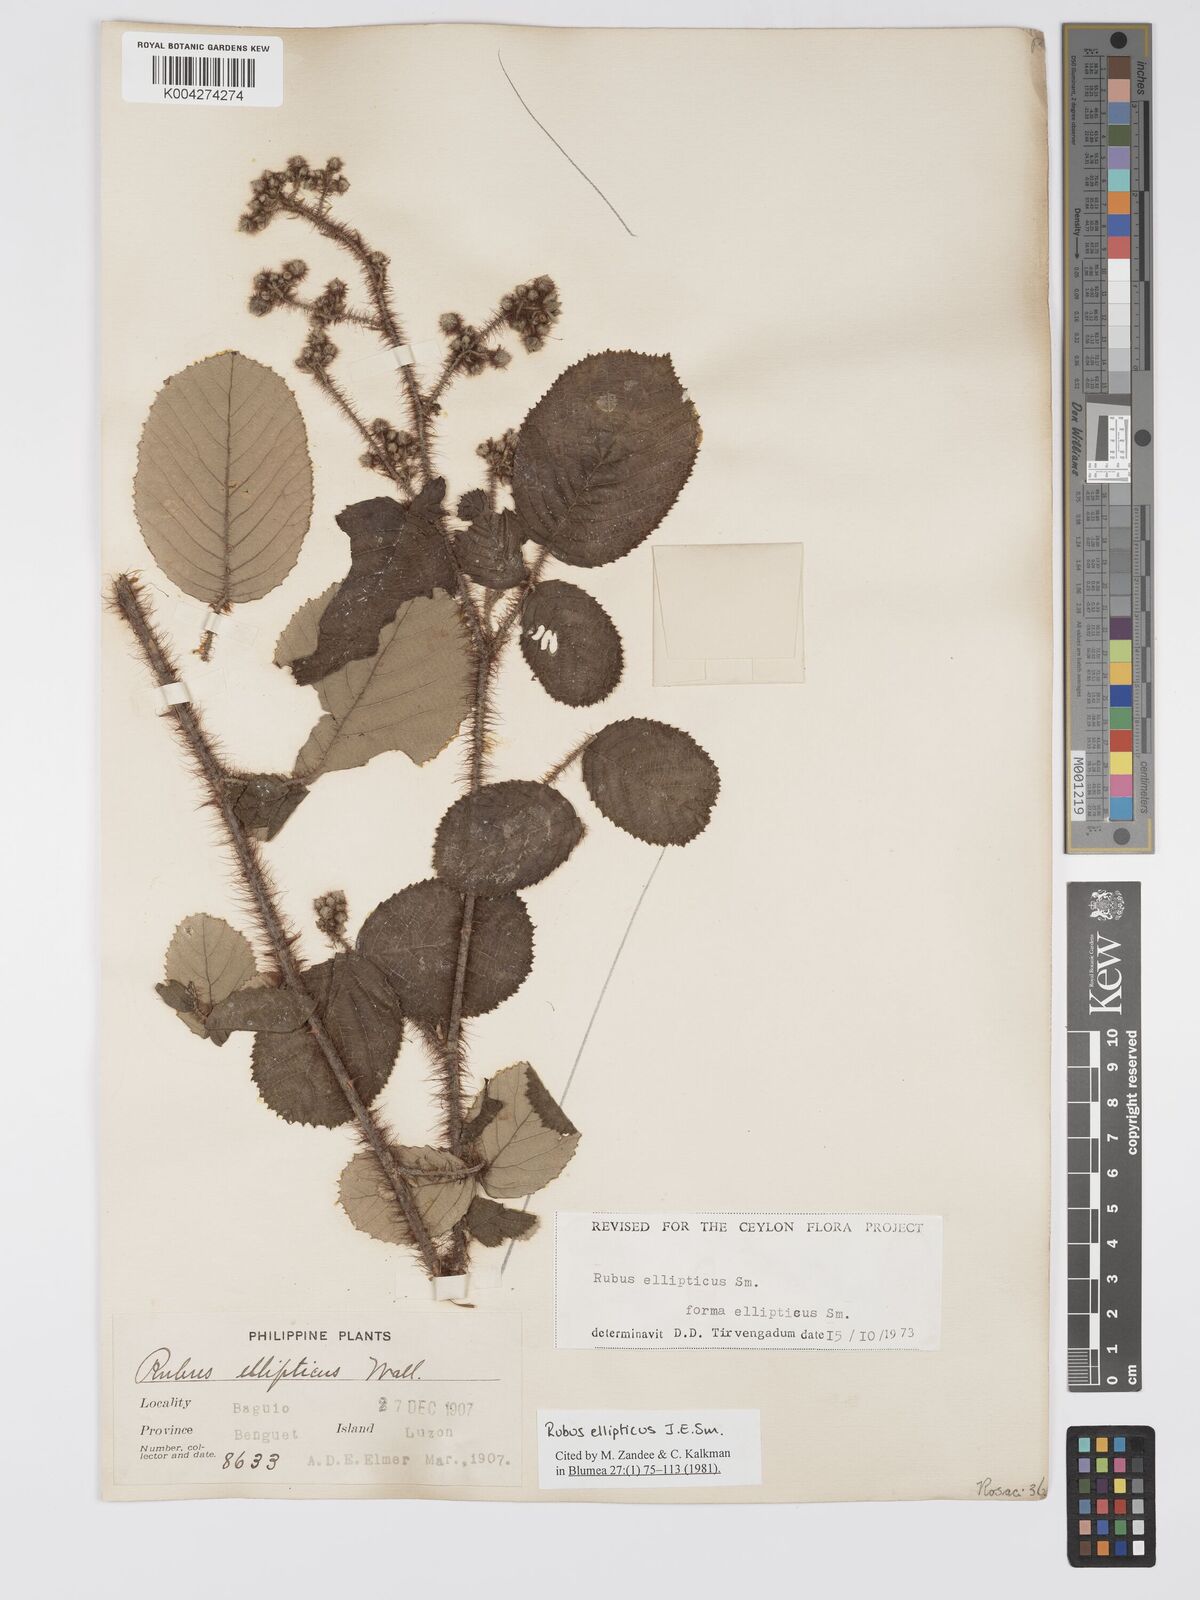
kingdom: Plantae
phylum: Tracheophyta
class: Magnoliopsida
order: Rosales
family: Rosaceae
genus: Rubus
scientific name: Rubus ellipticus
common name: Cheeseberry
